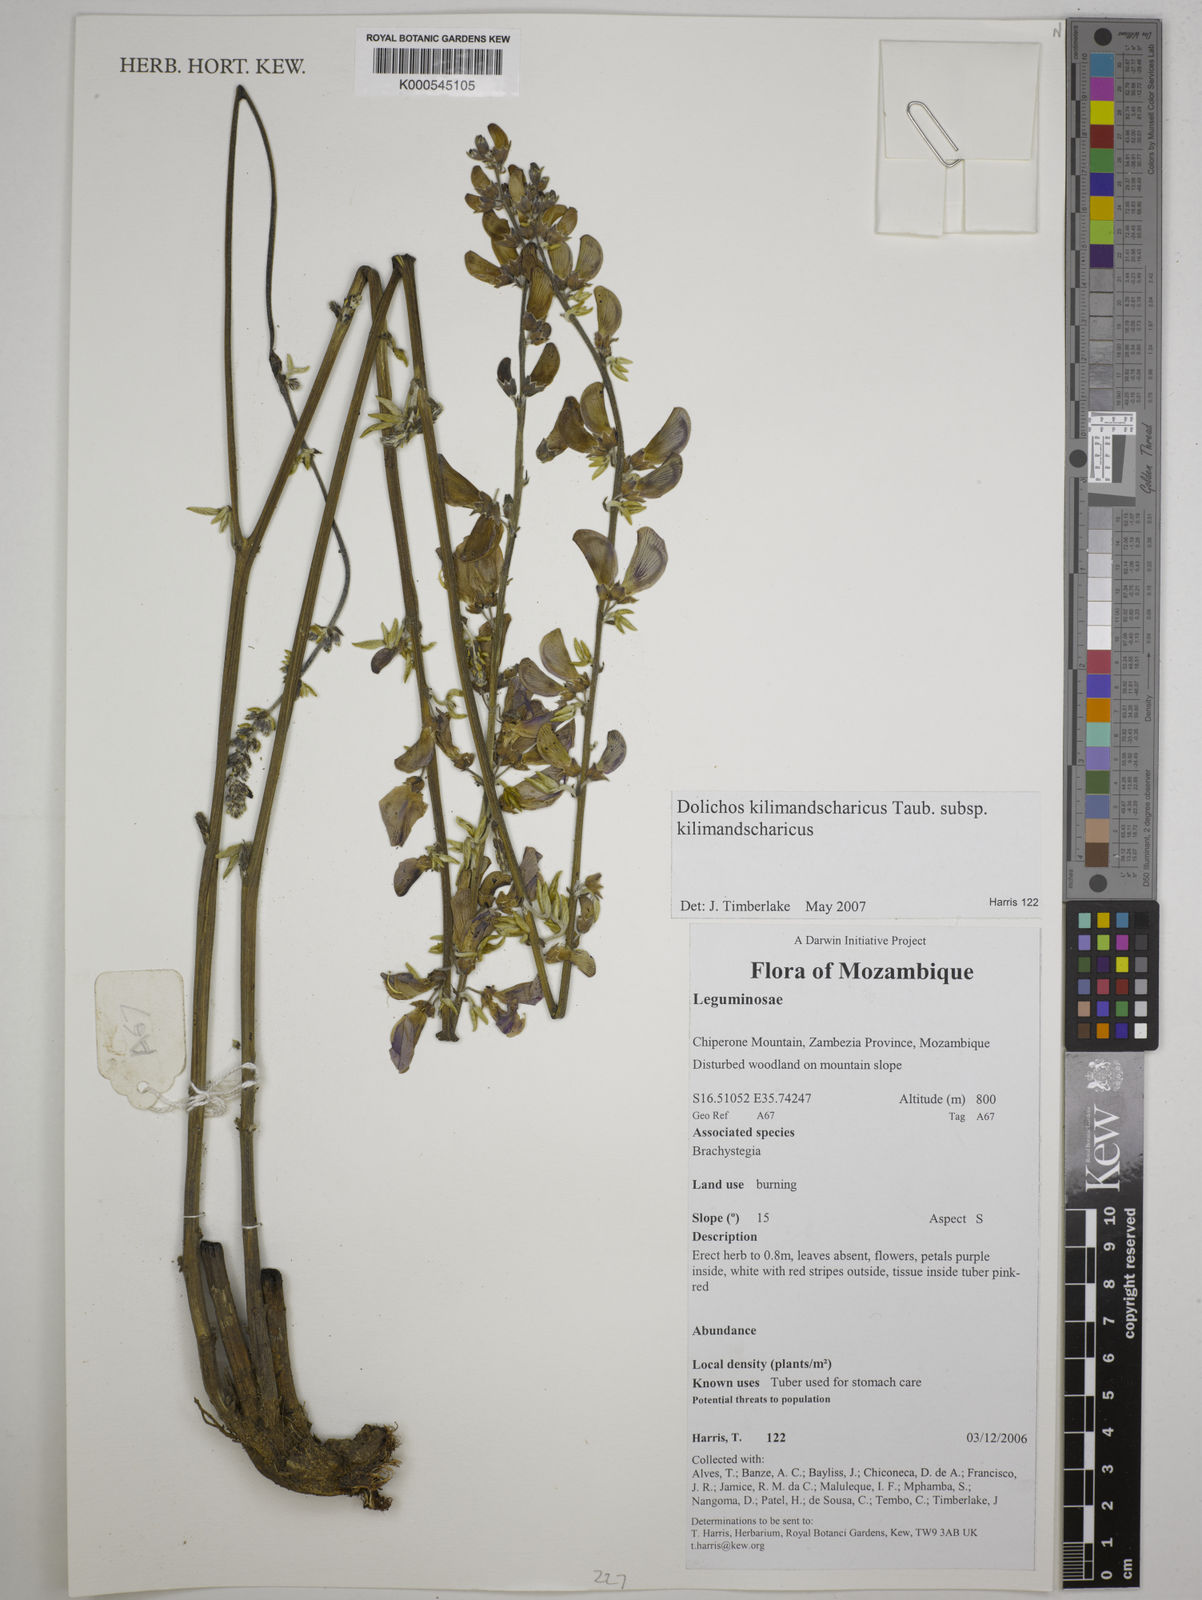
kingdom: Plantae
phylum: Tracheophyta
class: Magnoliopsida
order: Fabales
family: Fabaceae
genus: Dolichos
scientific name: Dolichos kilimandscharicus
